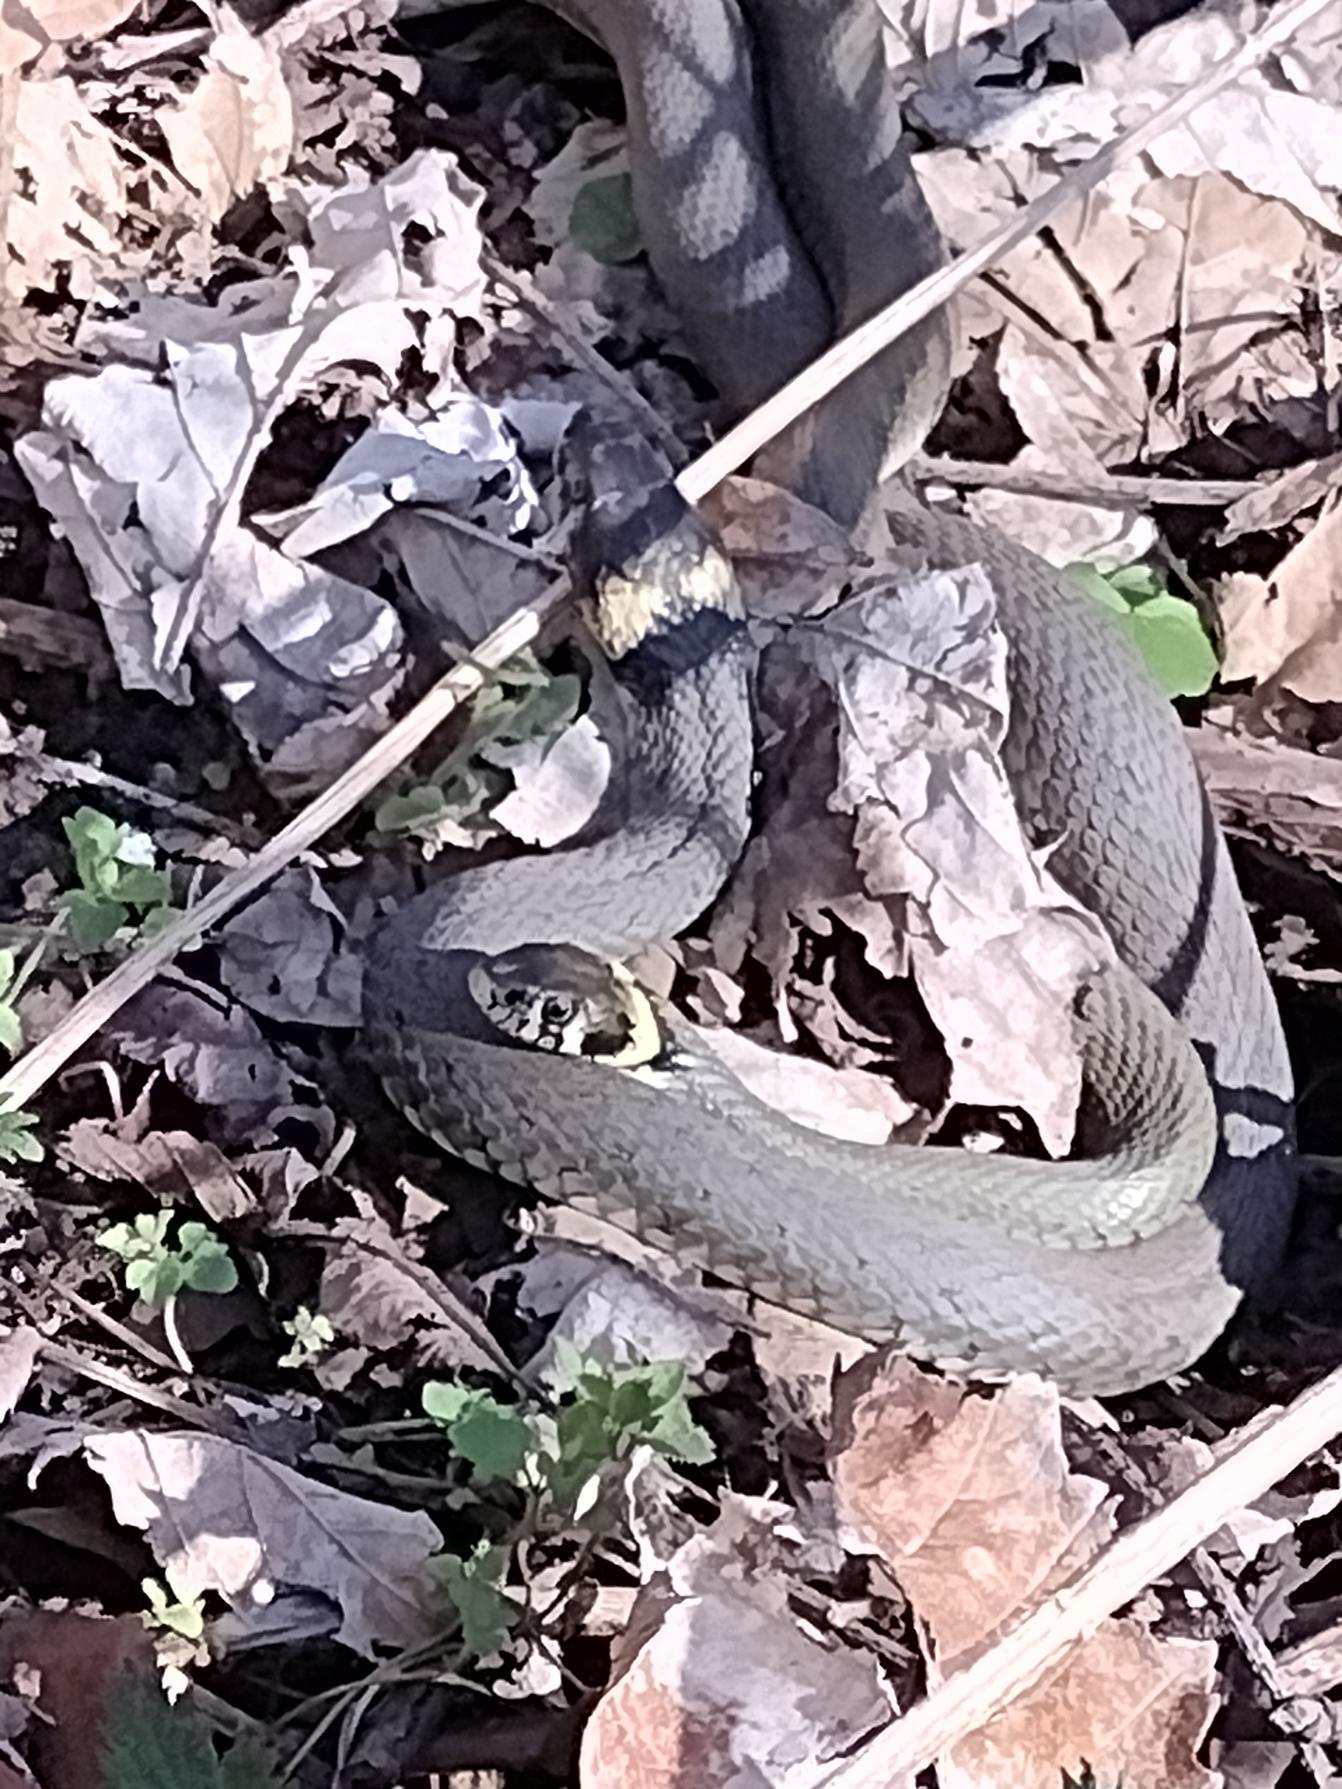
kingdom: Animalia
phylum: Chordata
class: Squamata
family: Colubridae
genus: Natrix
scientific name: Natrix natrix
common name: Snog
